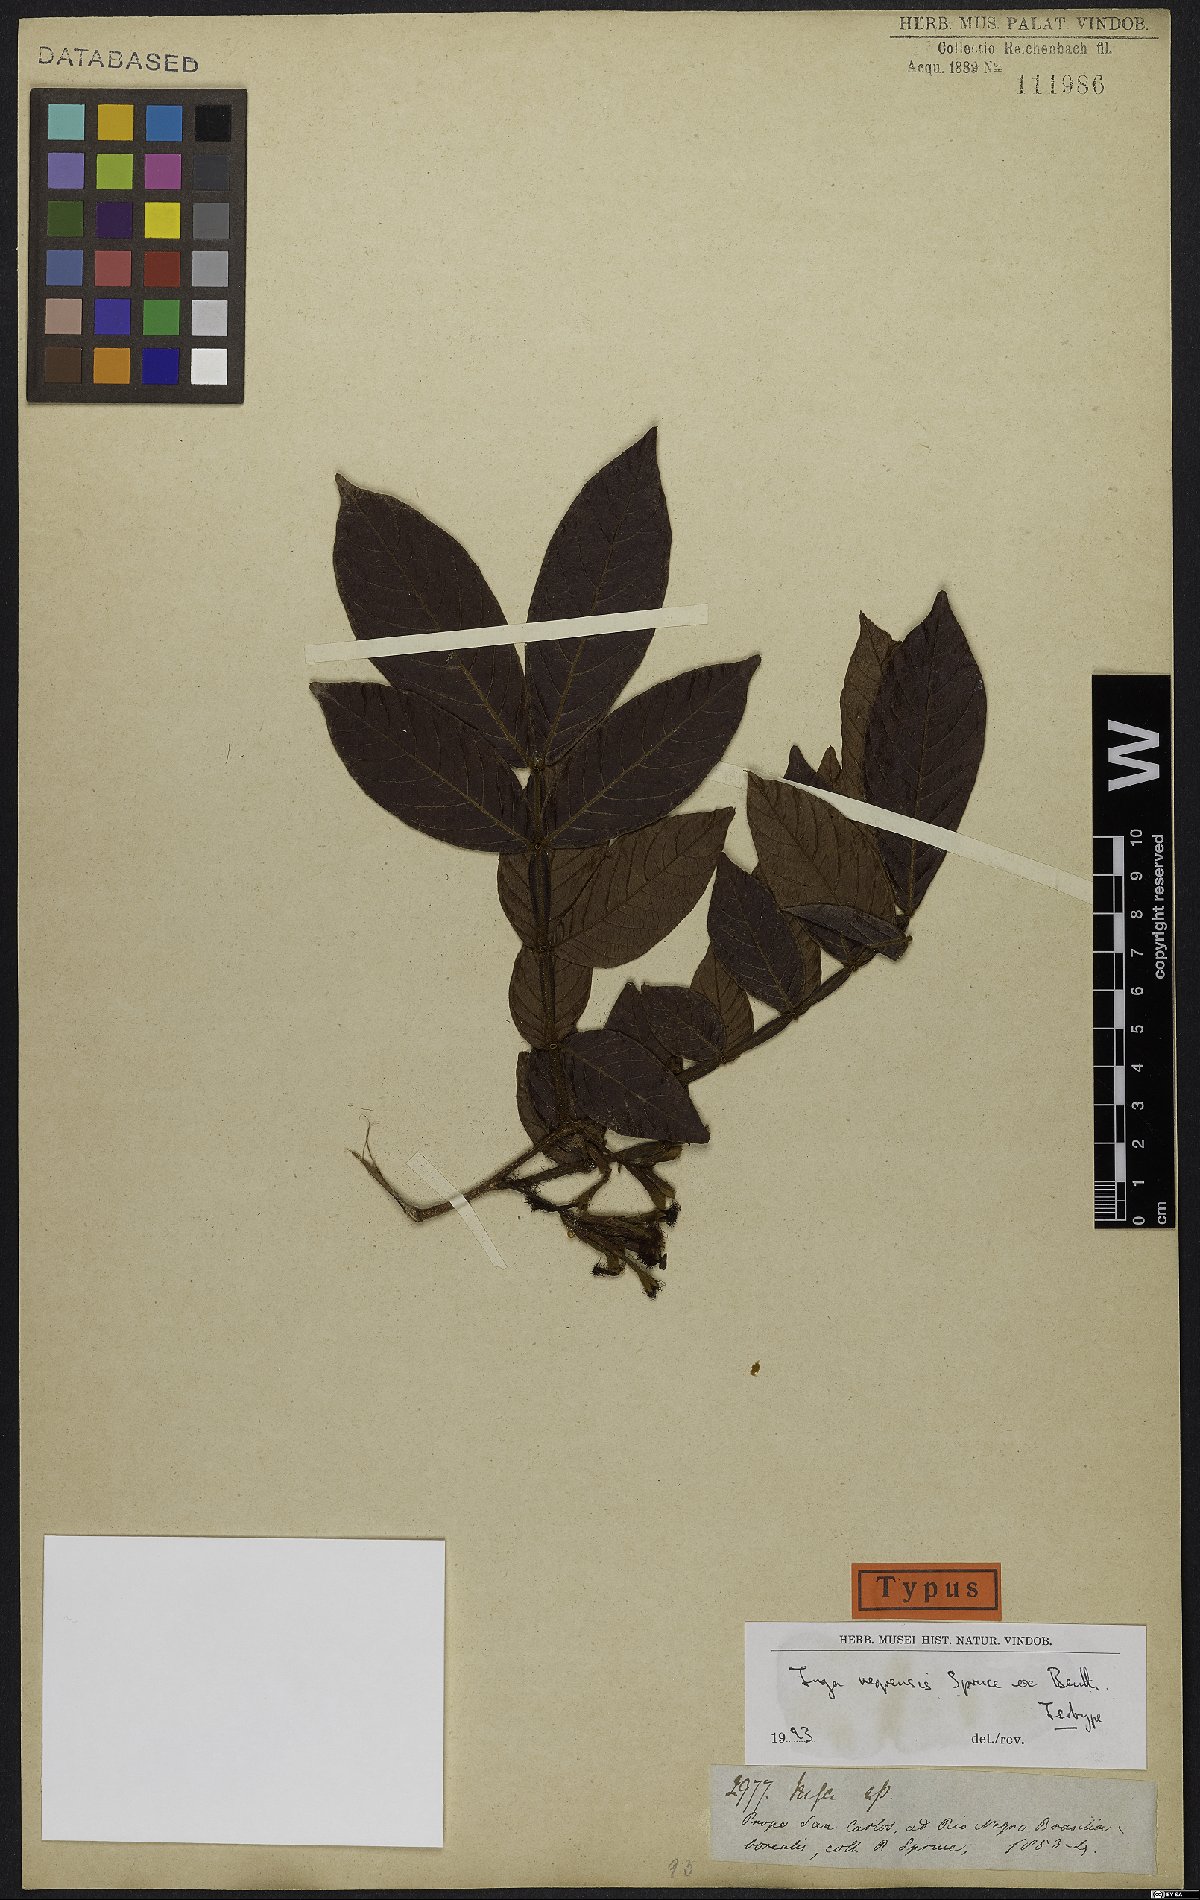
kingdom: Plantae
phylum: Tracheophyta
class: Magnoliopsida
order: Fabales
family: Fabaceae
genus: Inga
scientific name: Inga micradenia
